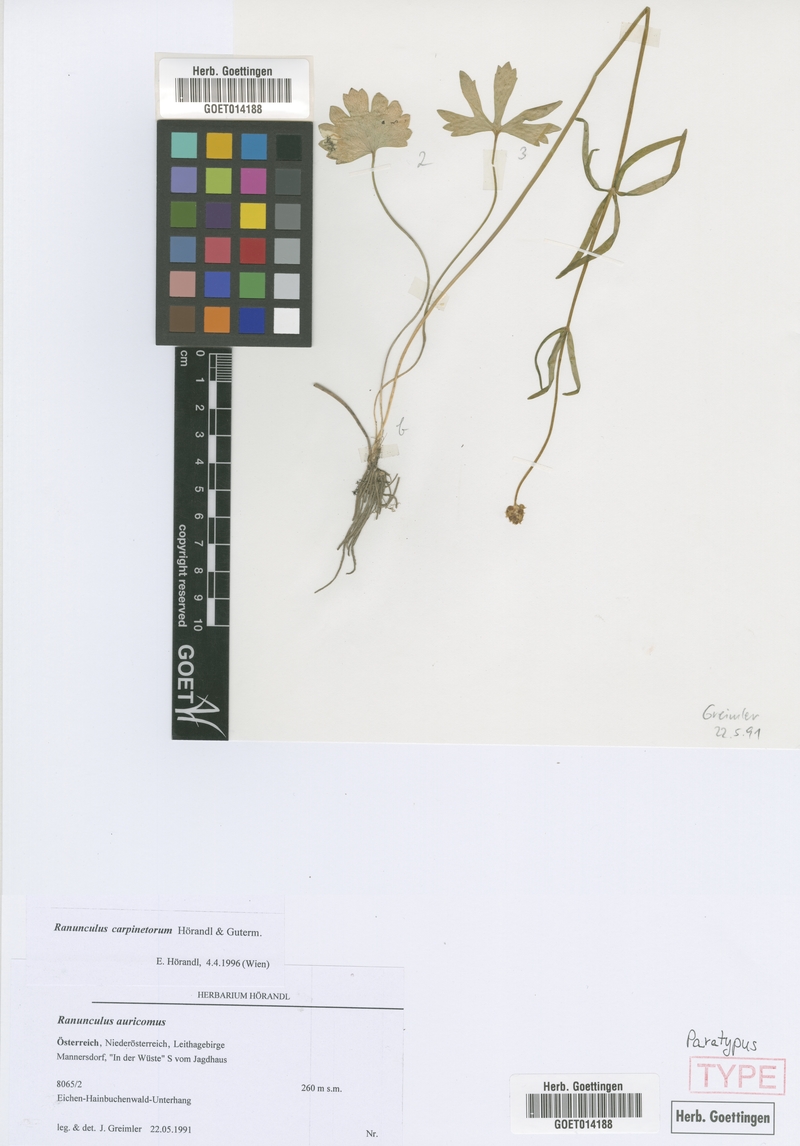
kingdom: Plantae
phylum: Tracheophyta
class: Magnoliopsida
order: Ranunculales
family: Ranunculaceae
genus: Ranunculus
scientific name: Ranunculus carpinetorum
